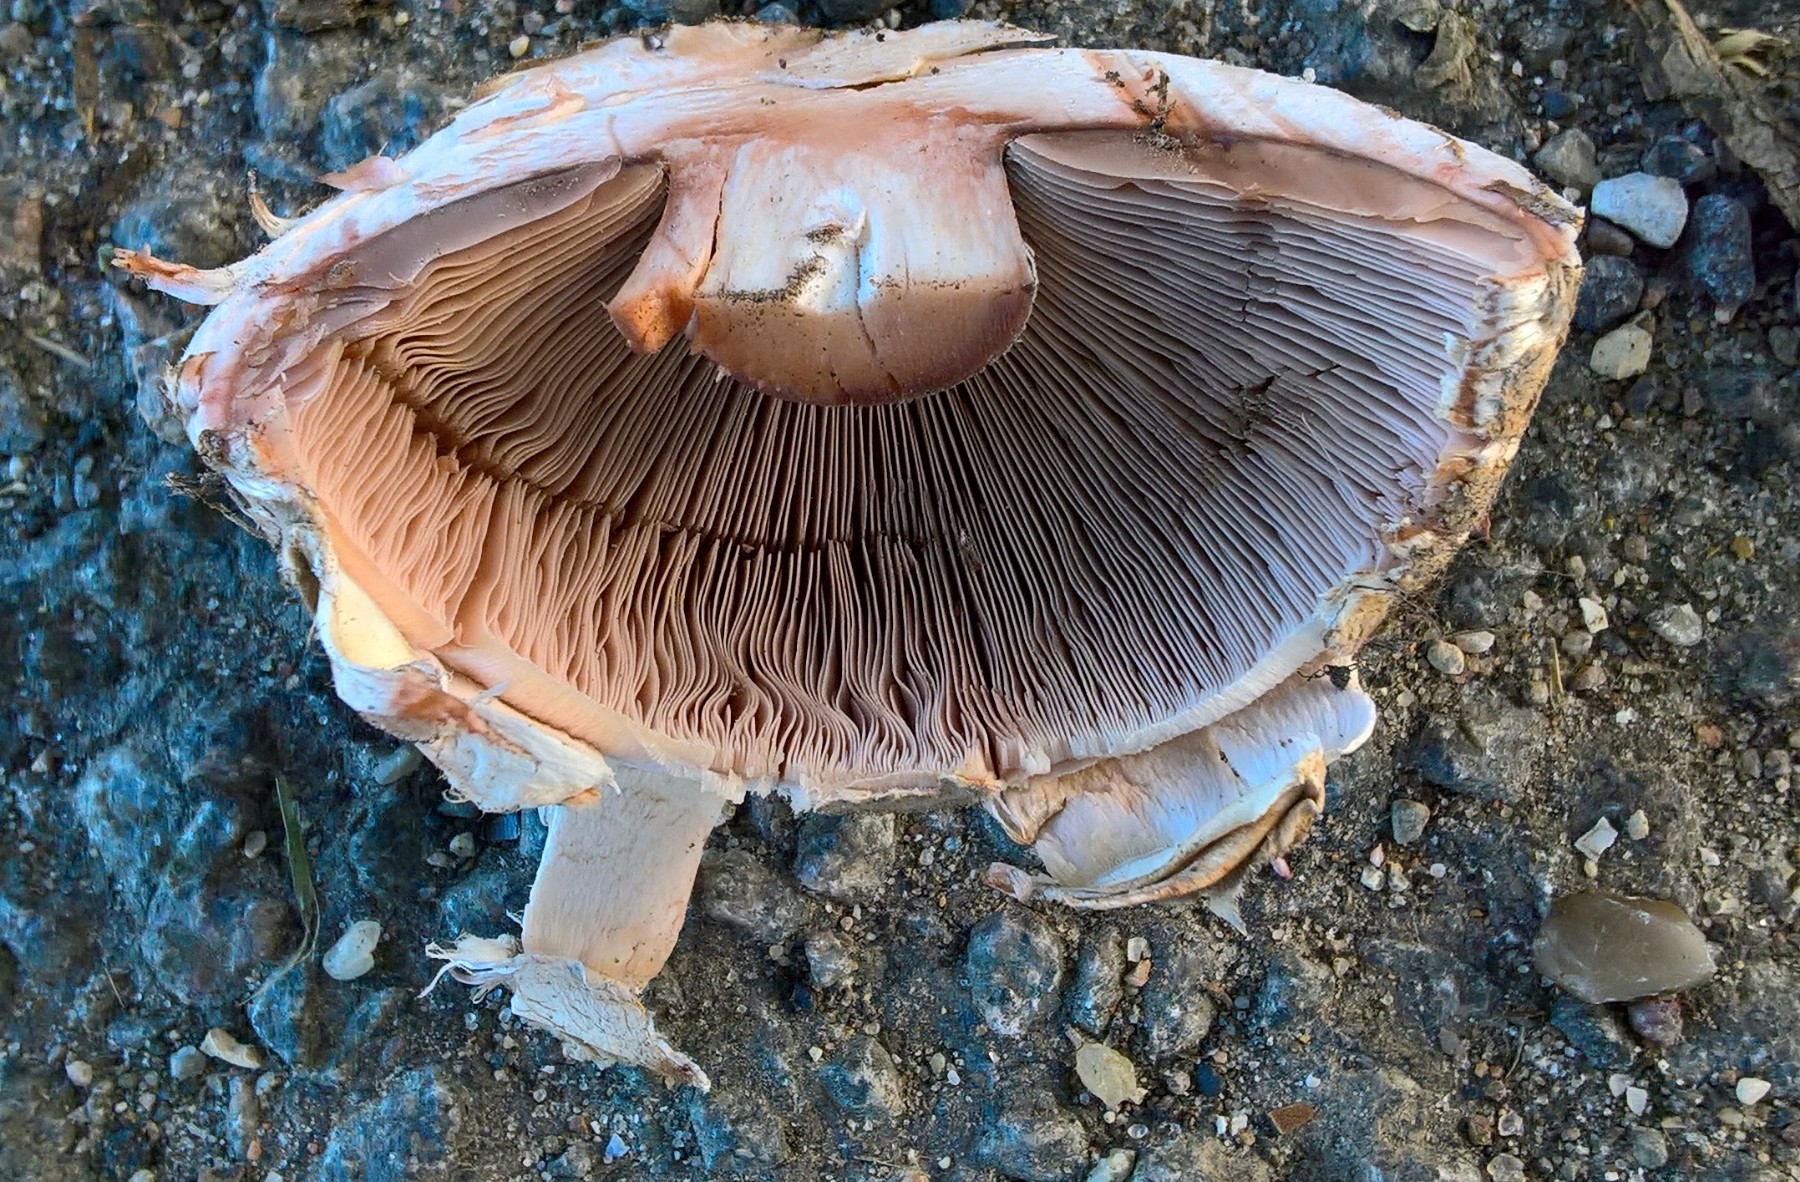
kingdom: Fungi
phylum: Basidiomycota
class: Agaricomycetes
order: Agaricales
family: Agaricaceae
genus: Agaricus
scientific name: Agaricus bohusii
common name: krumskællet champignon
